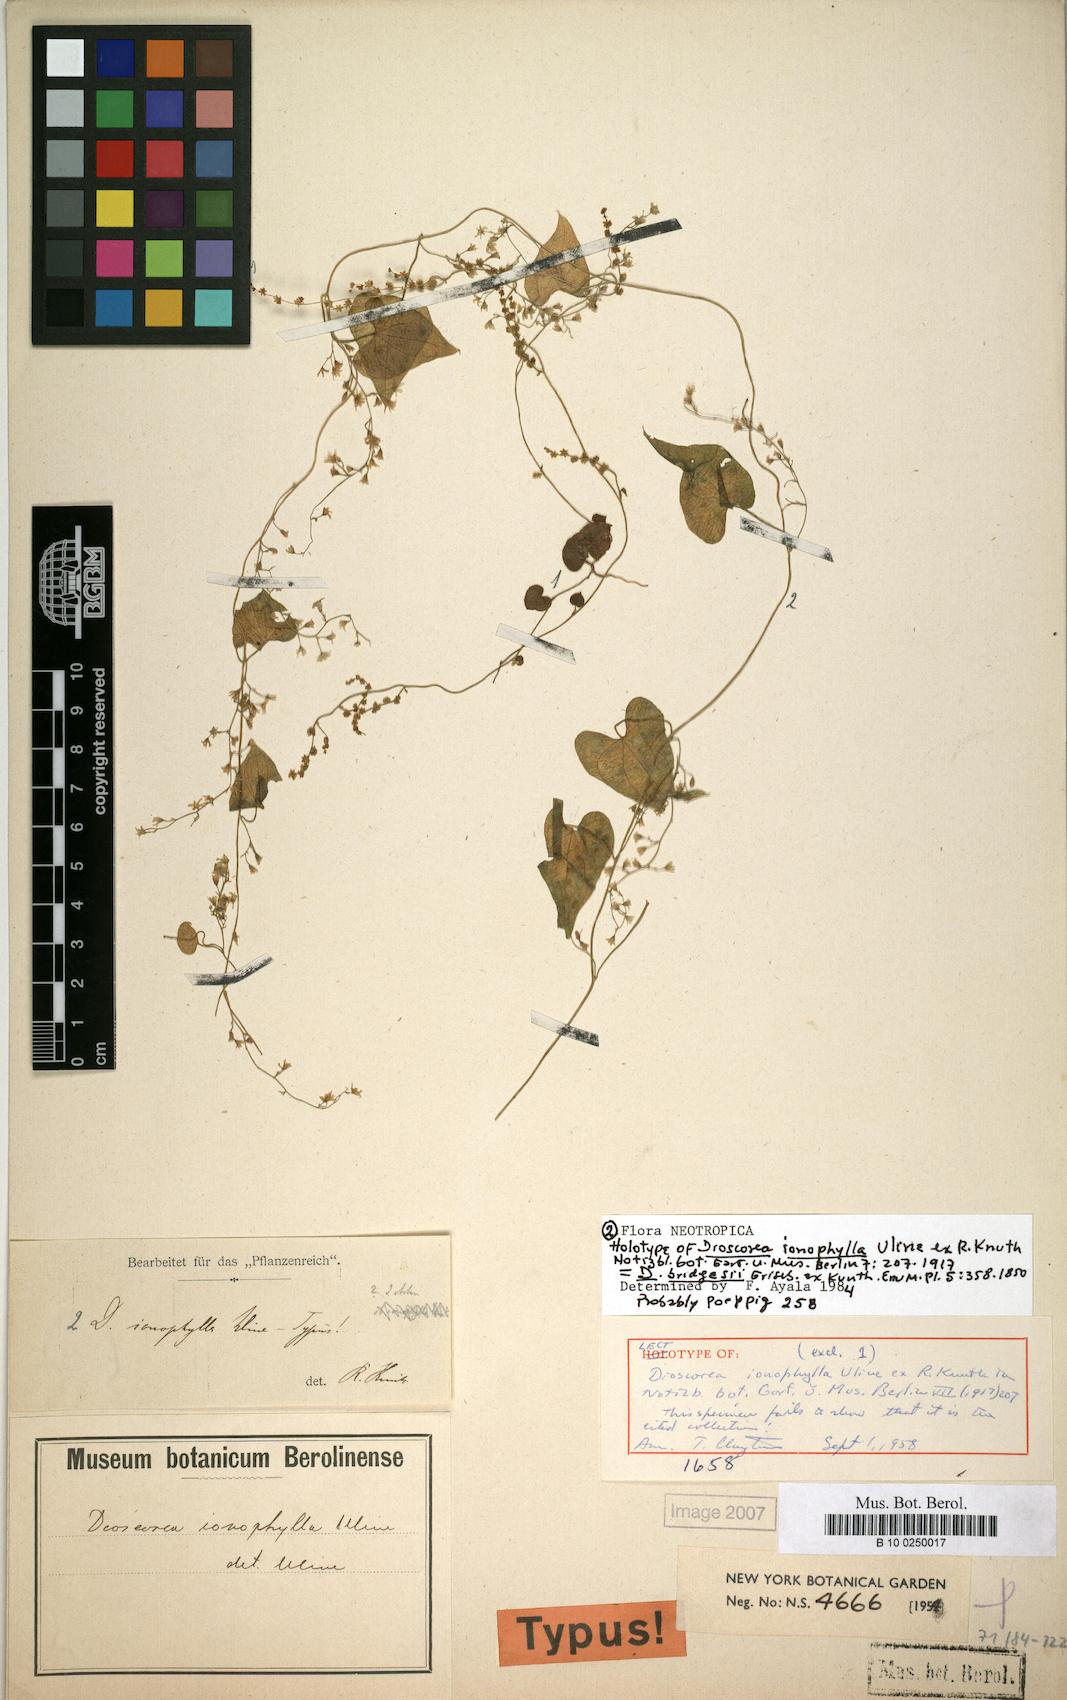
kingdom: Plantae
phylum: Tracheophyta
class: Liliopsida
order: Dioscoreales
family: Dioscoreaceae
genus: Dioscorea
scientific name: Dioscorea bridgesii
